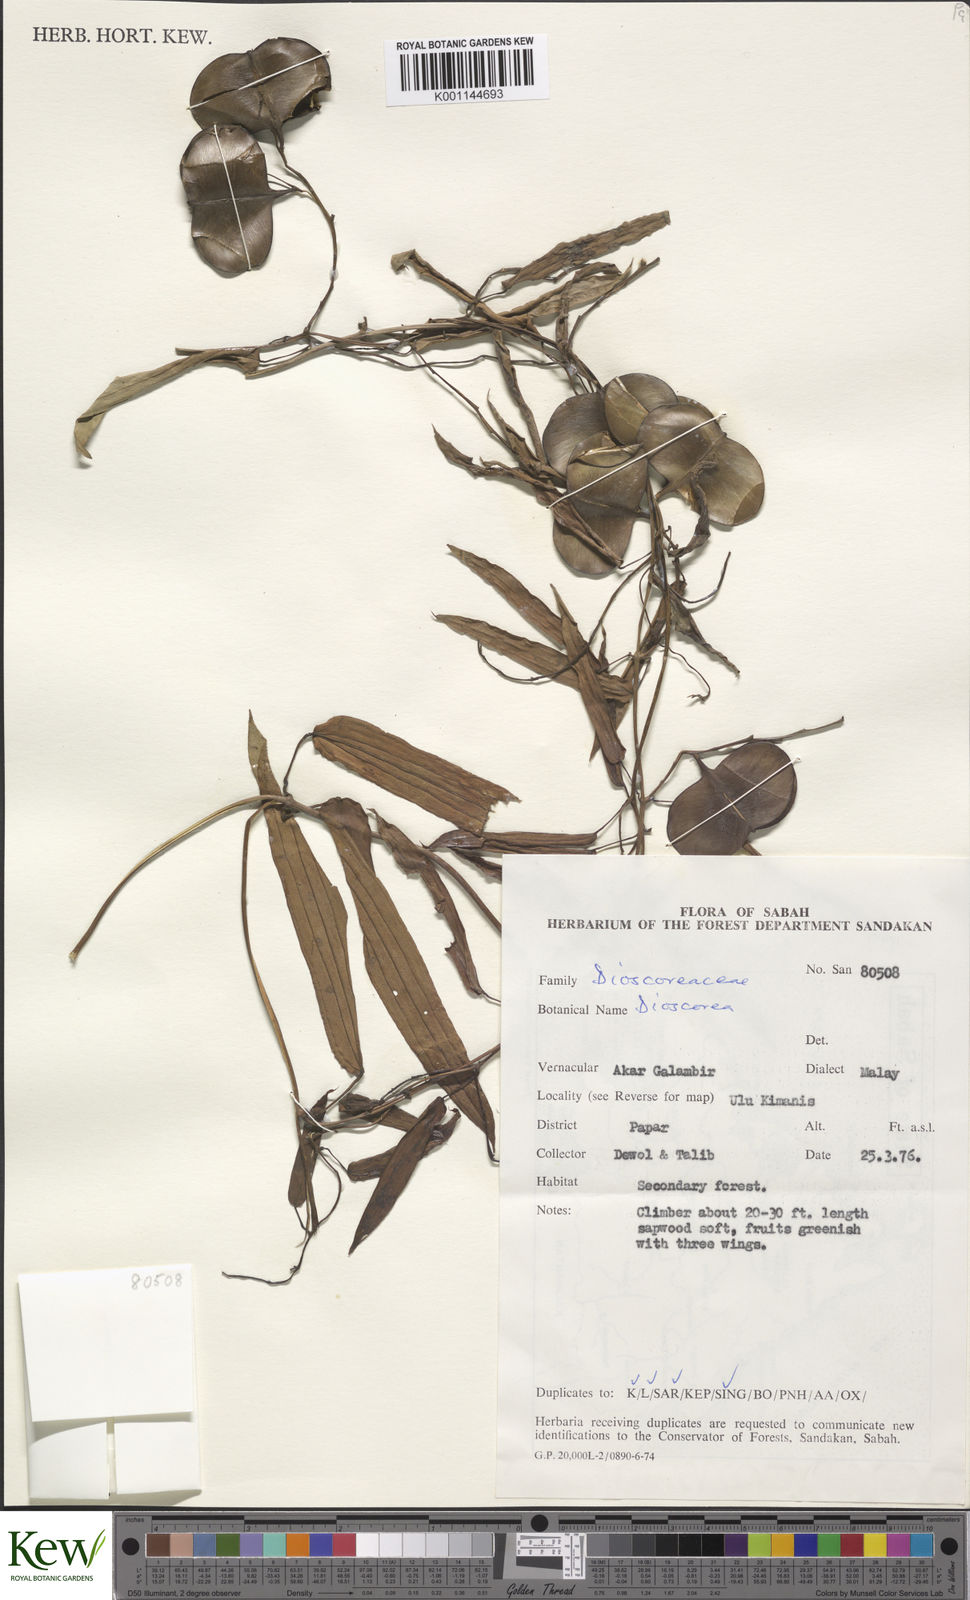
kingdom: Plantae
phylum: Tracheophyta
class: Liliopsida
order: Dioscoreales
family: Dioscoreaceae
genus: Dioscorea
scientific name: Dioscorea
